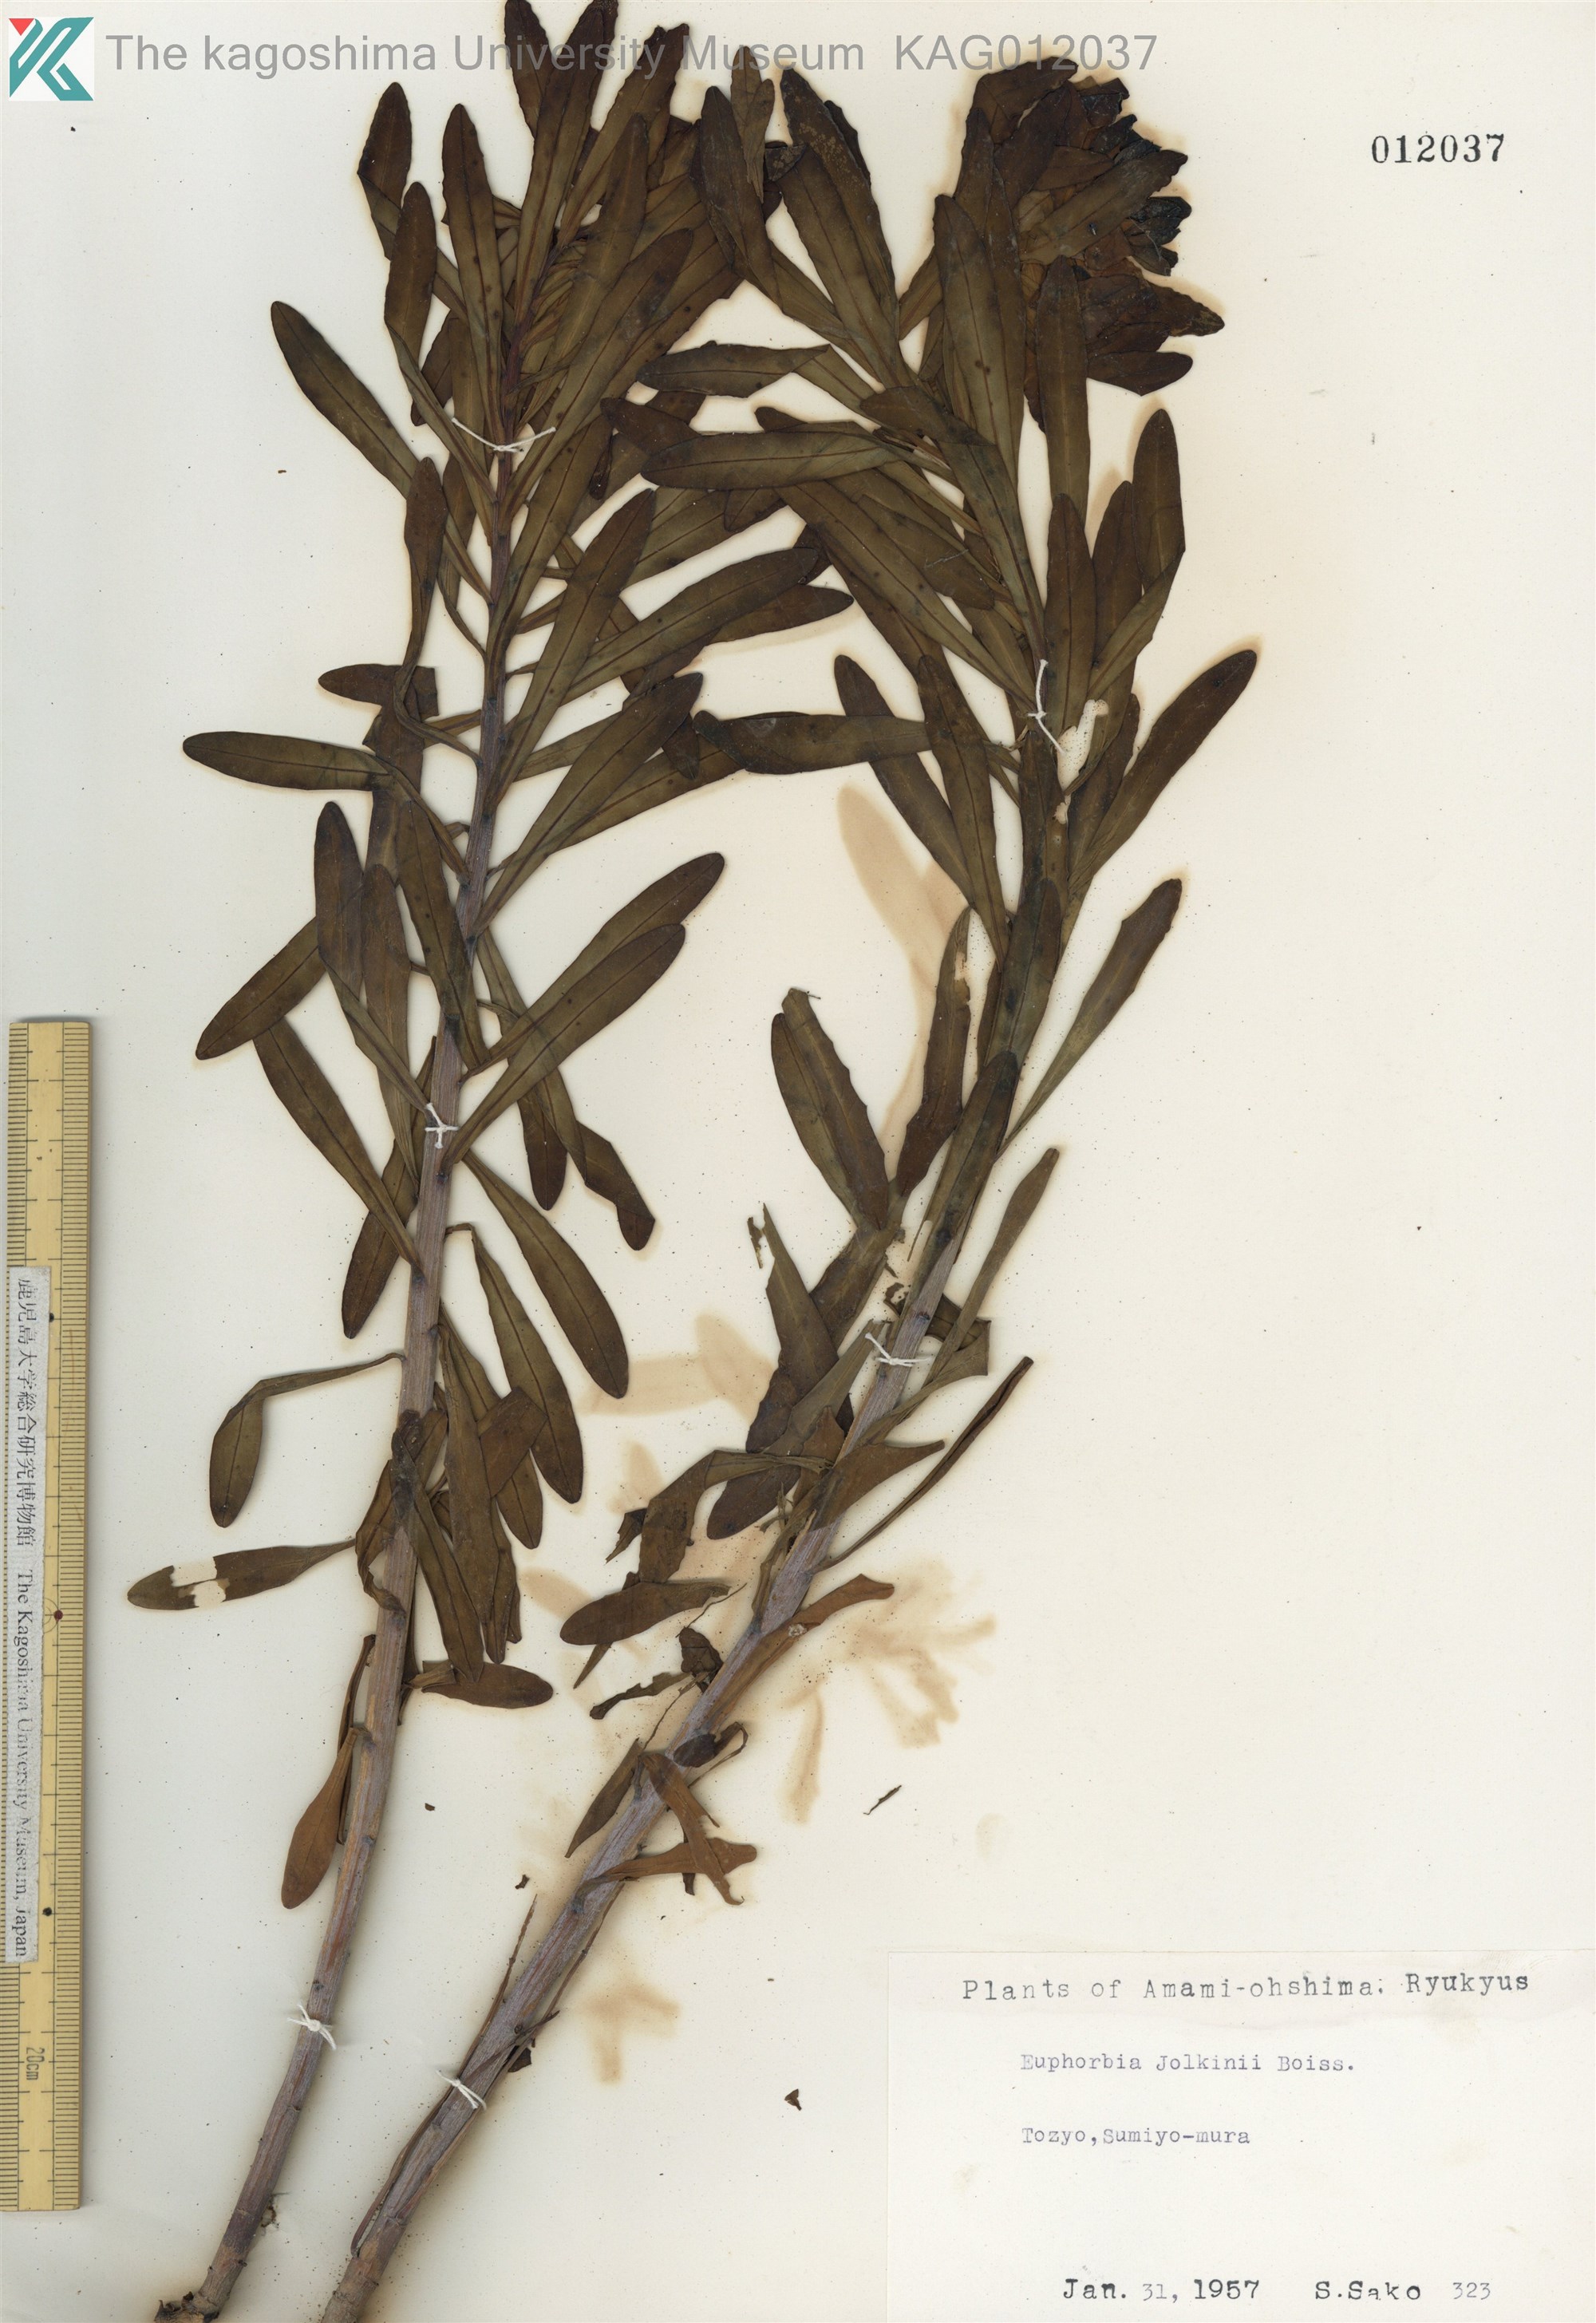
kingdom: Plantae
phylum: Tracheophyta
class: Magnoliopsida
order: Malpighiales
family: Euphorbiaceae
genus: Euphorbia
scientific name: Euphorbia jolkinii
